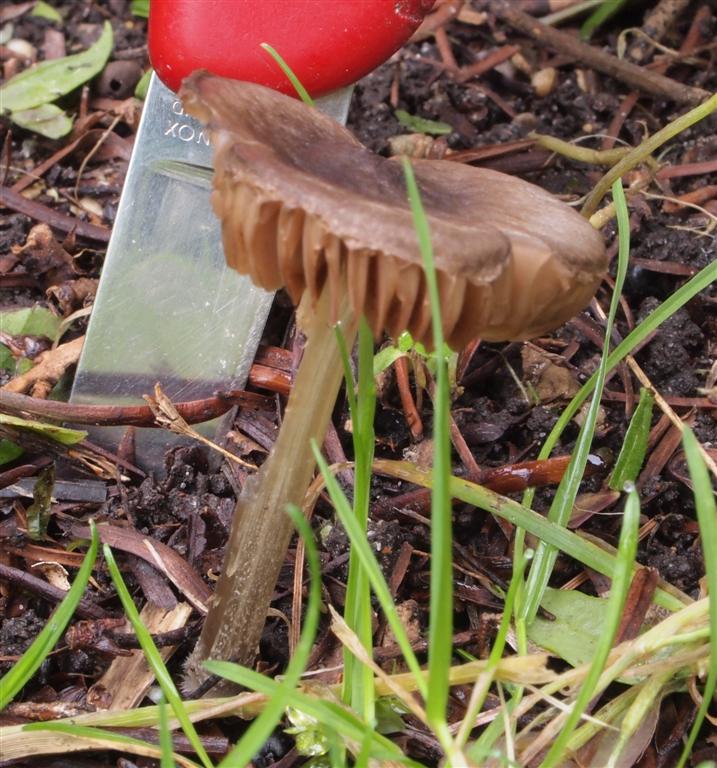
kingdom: Fungi
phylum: Basidiomycota
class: Agaricomycetes
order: Agaricales
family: Pluteaceae
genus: Pluteus
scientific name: Pluteus
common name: pudret skærmhat
